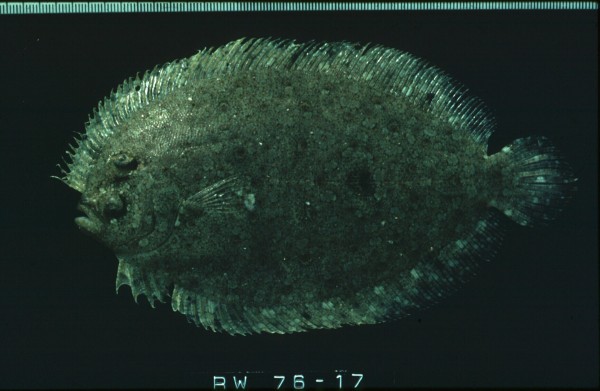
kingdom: Animalia
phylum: Chordata
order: Pleuronectiformes
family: Bothidae
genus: Bothus
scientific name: Bothus pantherinus
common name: Leopard flounder
